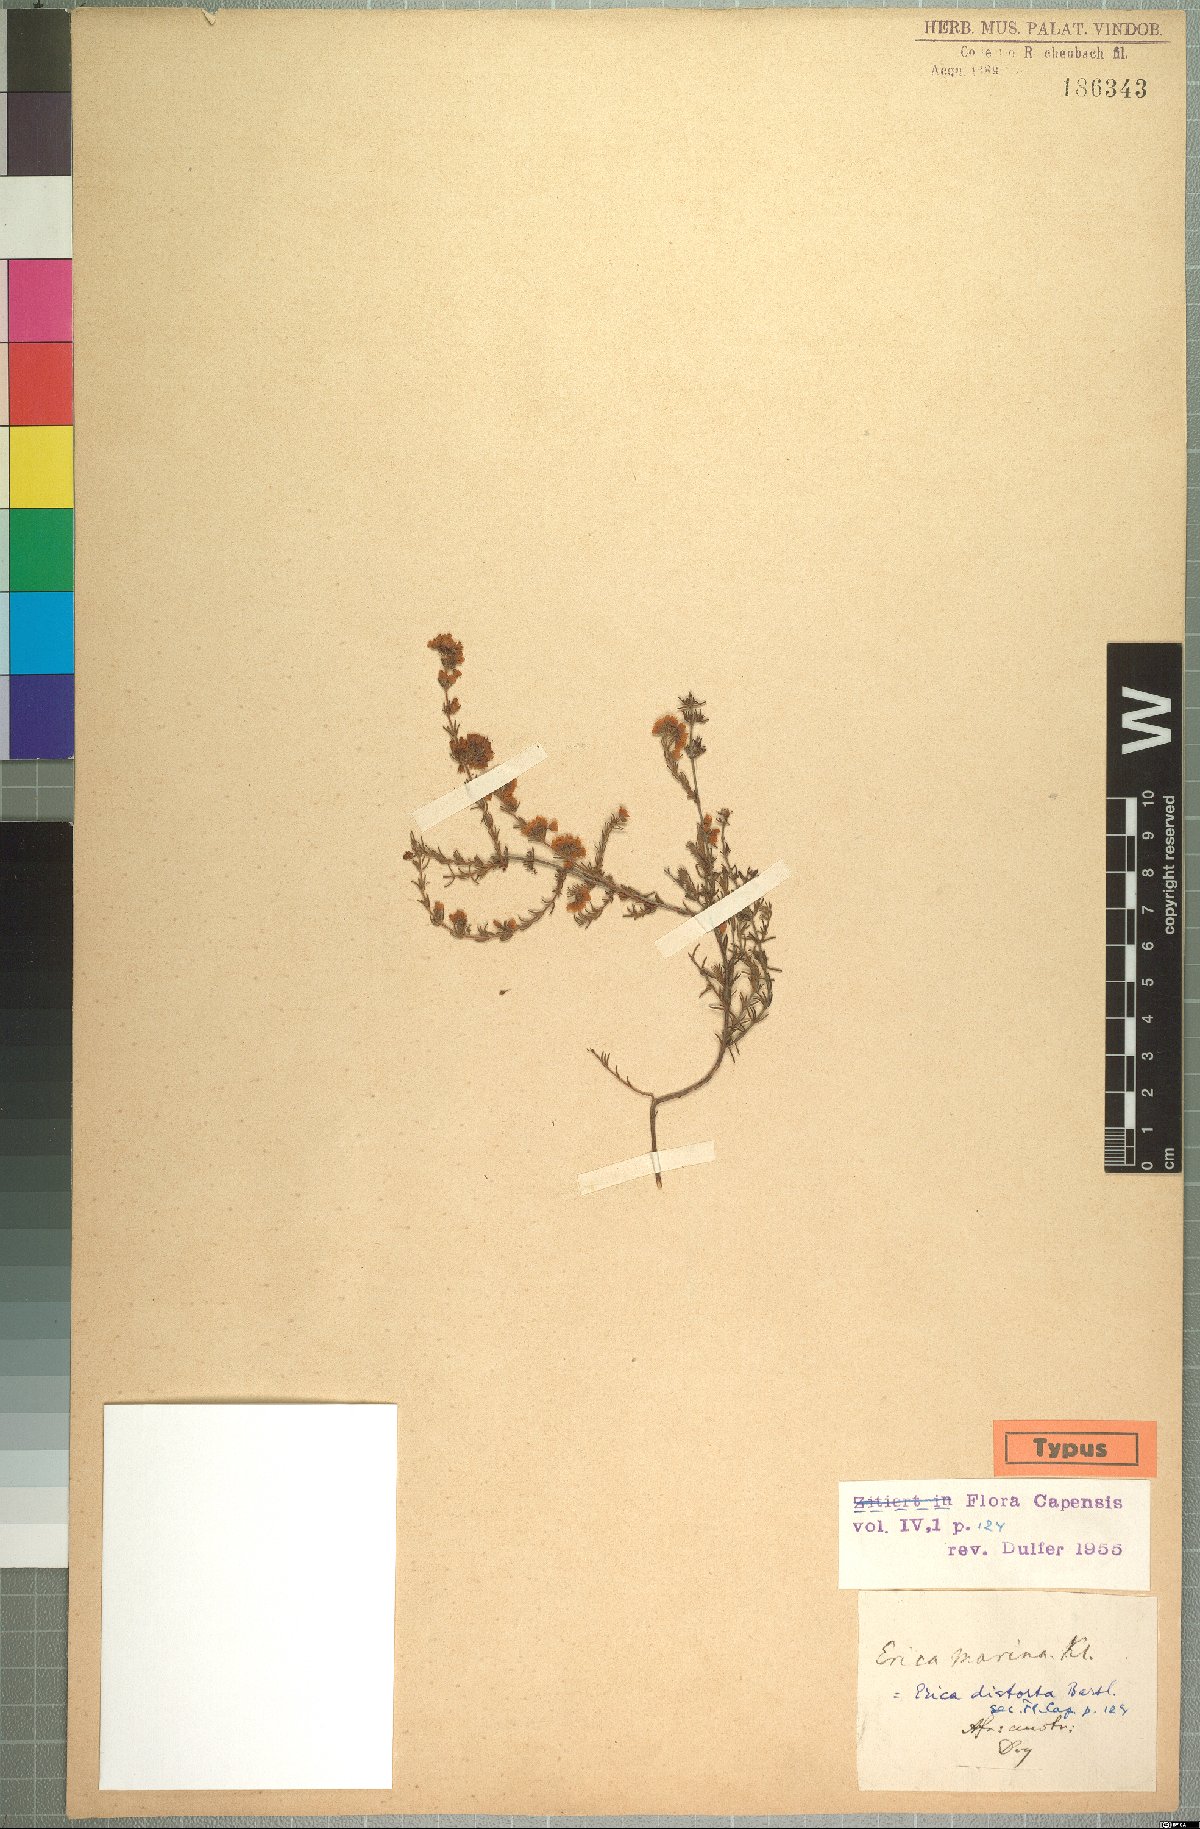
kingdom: Plantae
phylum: Tracheophyta
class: Magnoliopsida
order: Ericales
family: Ericaceae
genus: Erica
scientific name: Erica
